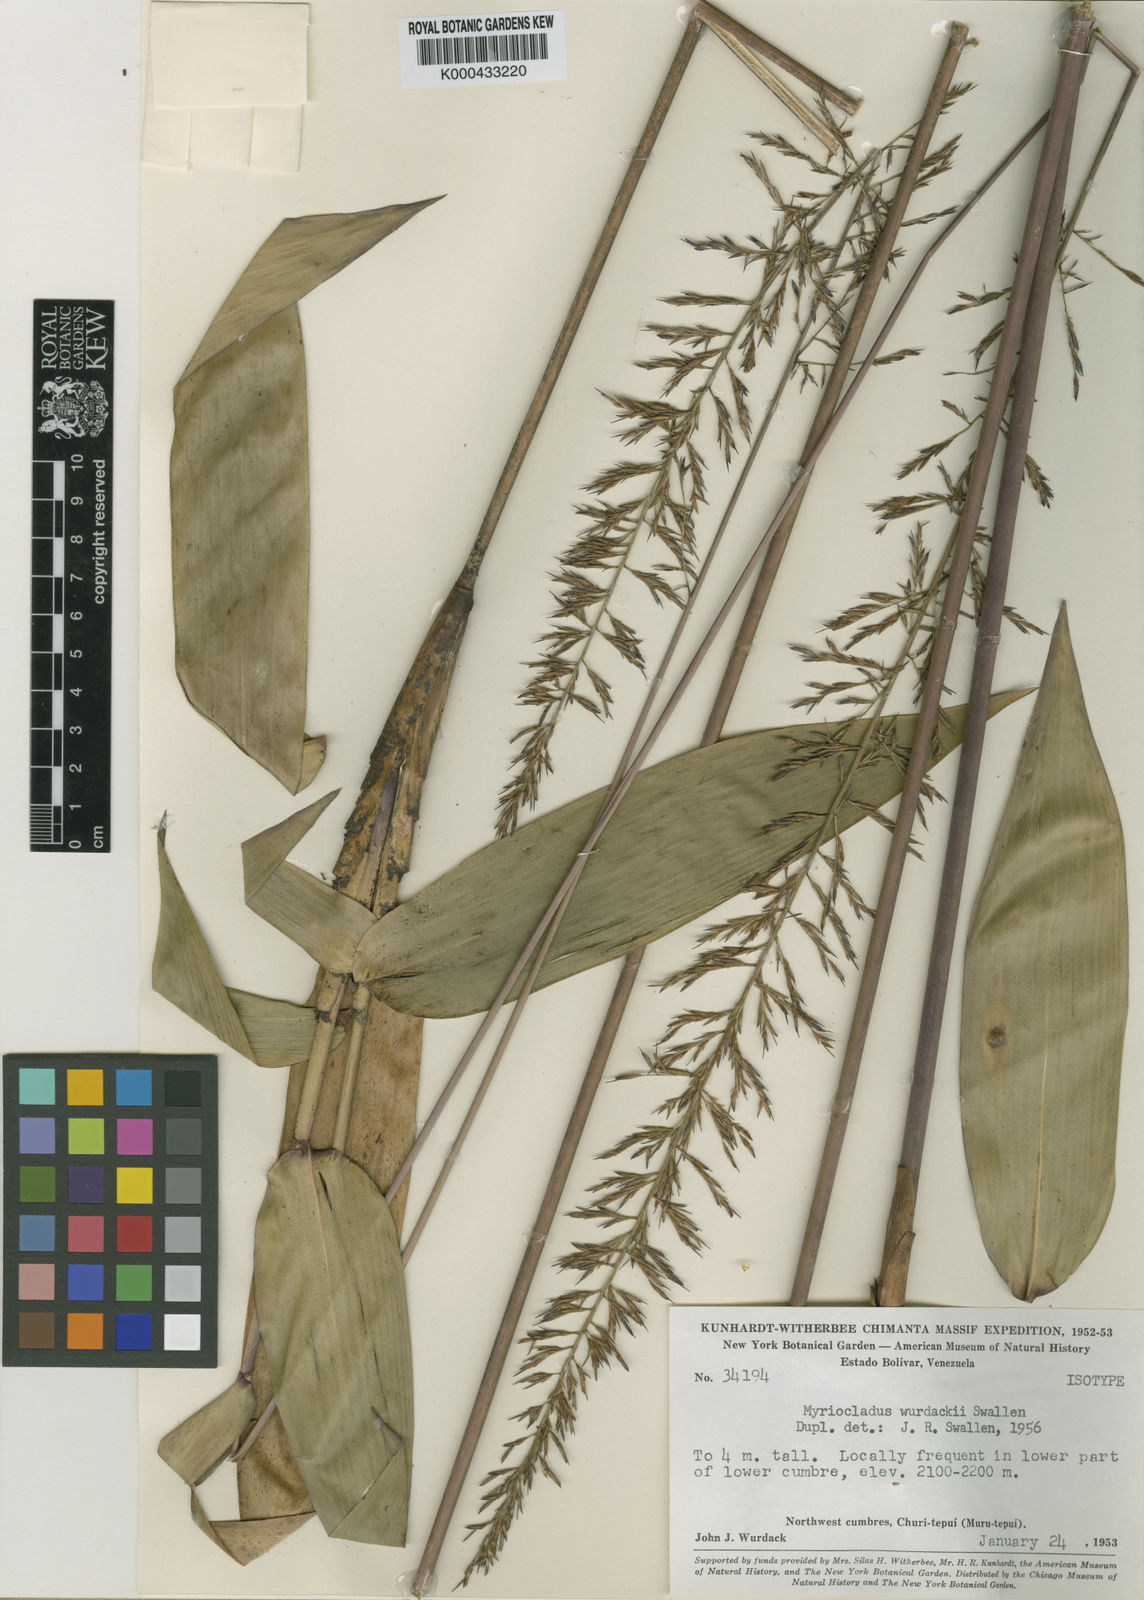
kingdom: Plantae
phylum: Tracheophyta
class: Liliopsida
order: Poales
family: Poaceae
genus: Myriocladus
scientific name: Myriocladus distantiflorus
